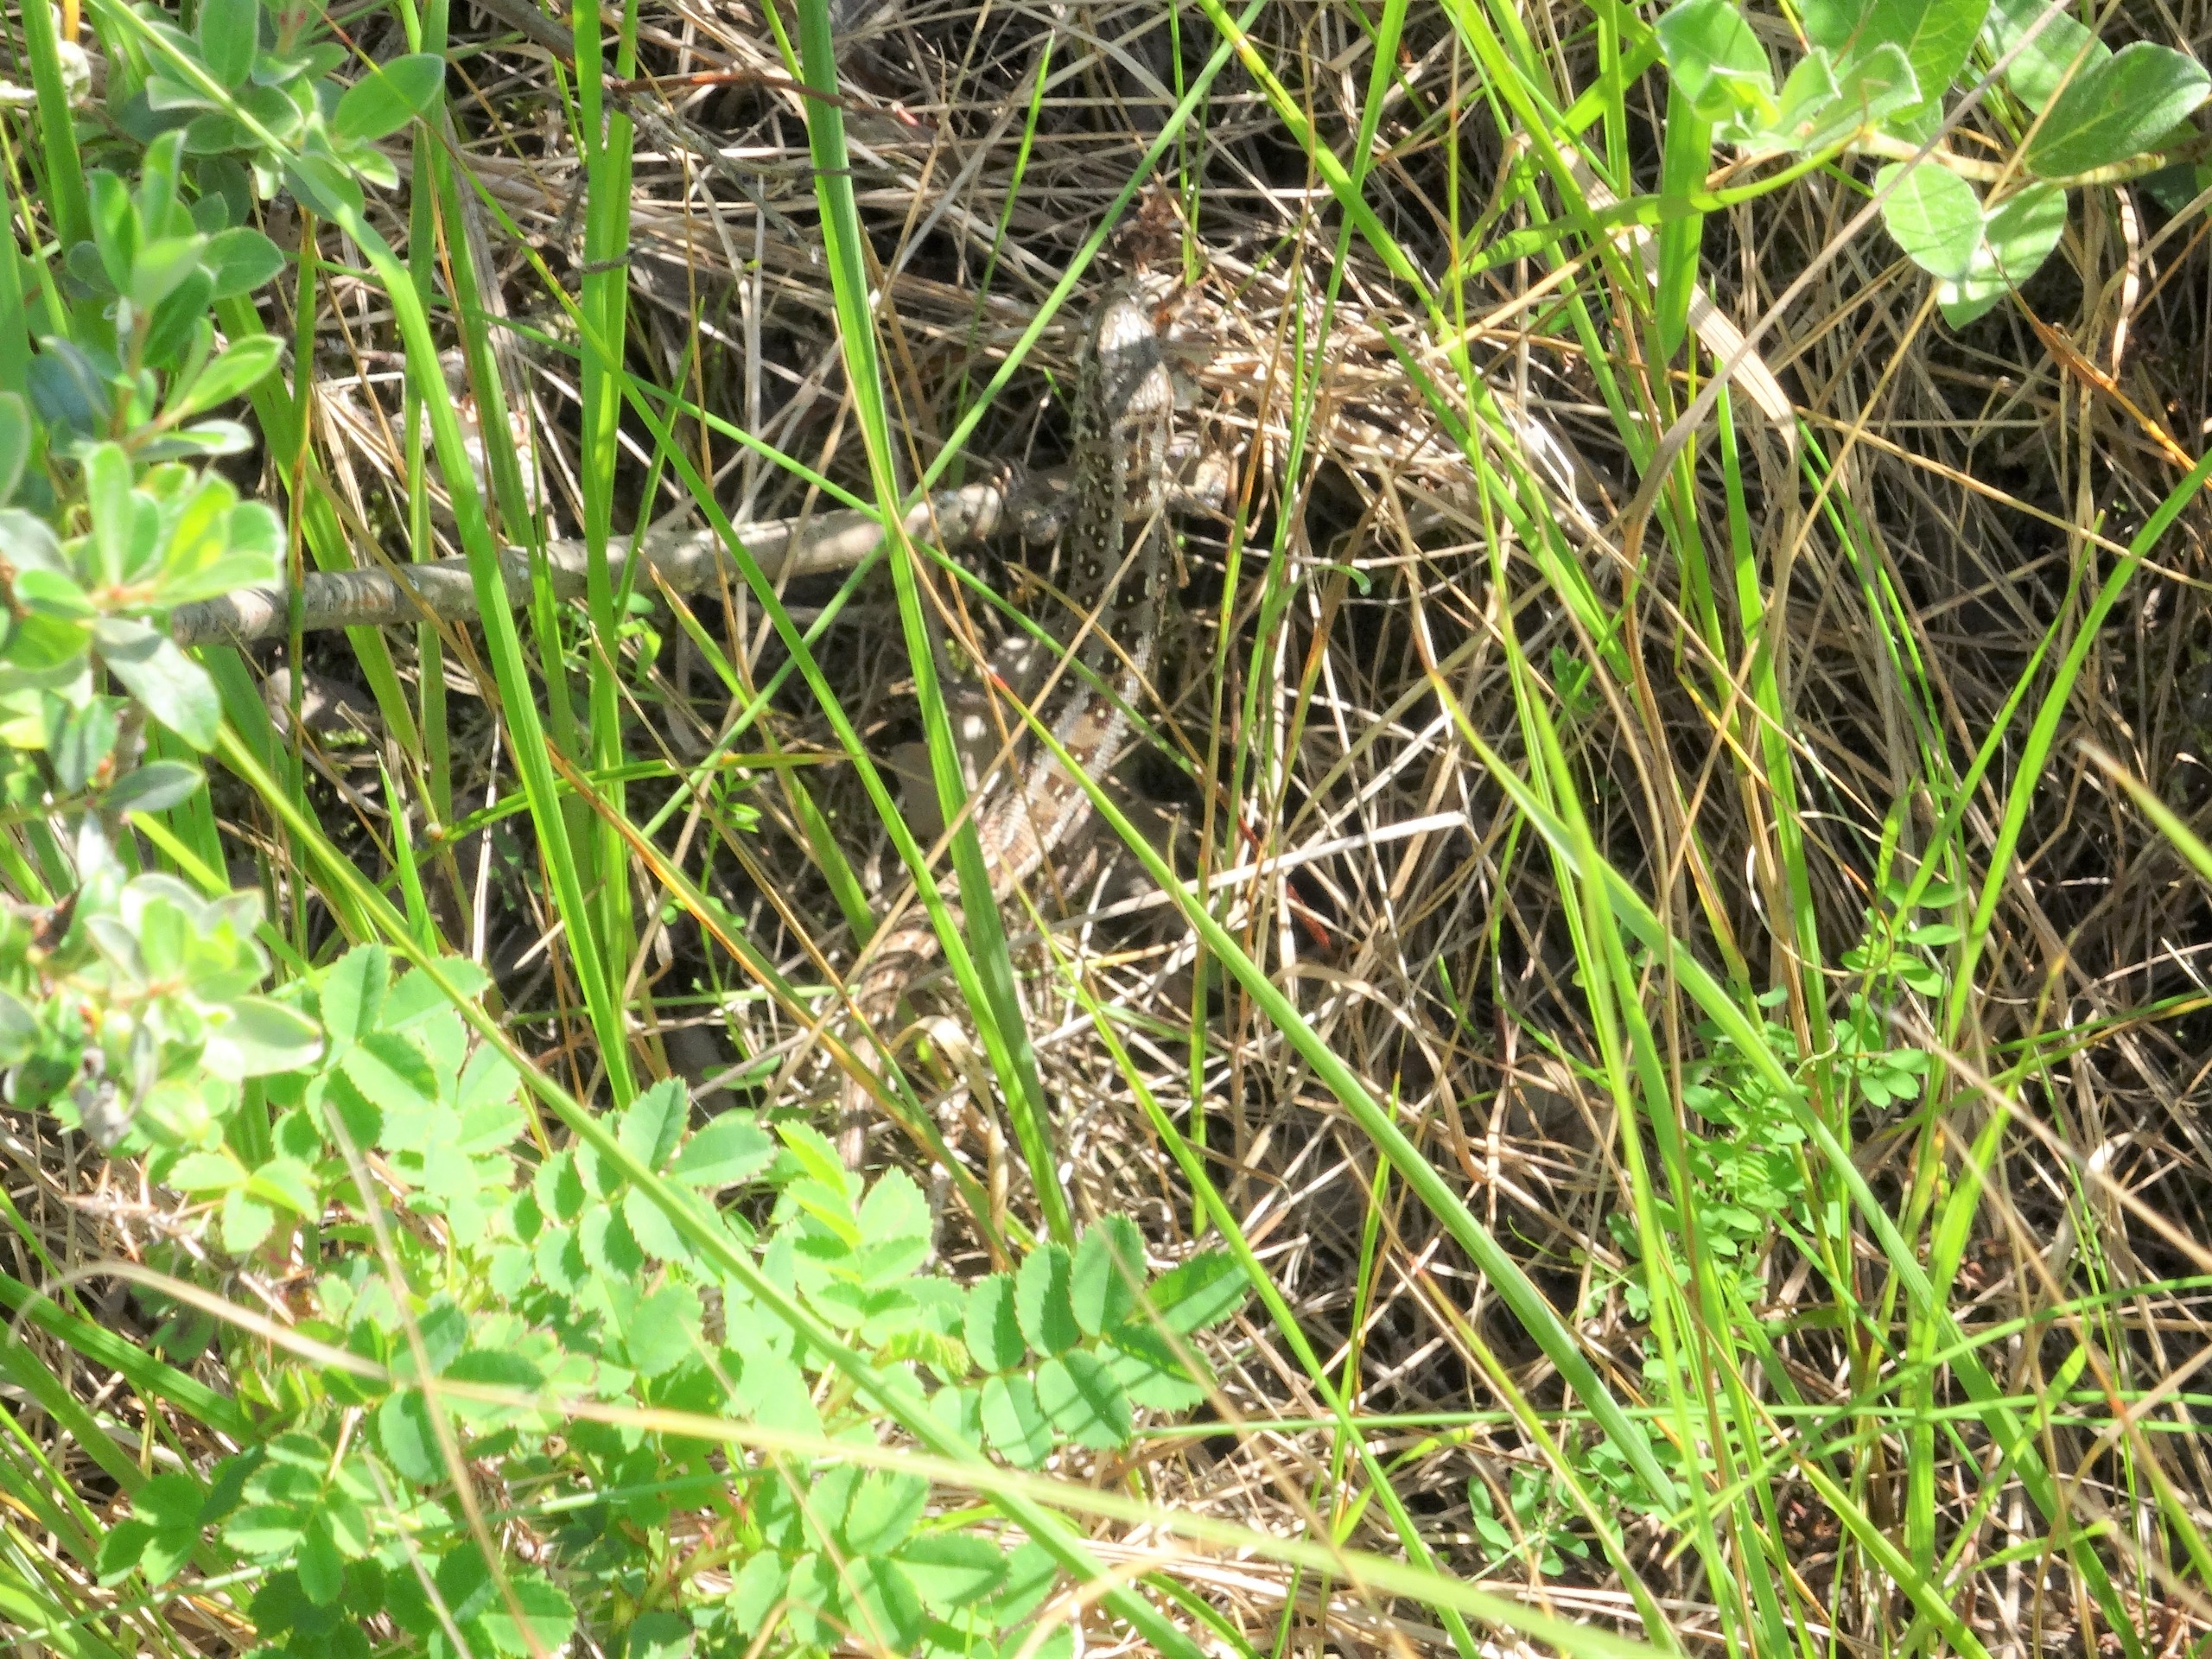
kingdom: Animalia
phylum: Chordata
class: Squamata
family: Lacertidae
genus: Lacerta
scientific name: Lacerta agilis
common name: Markfirben
